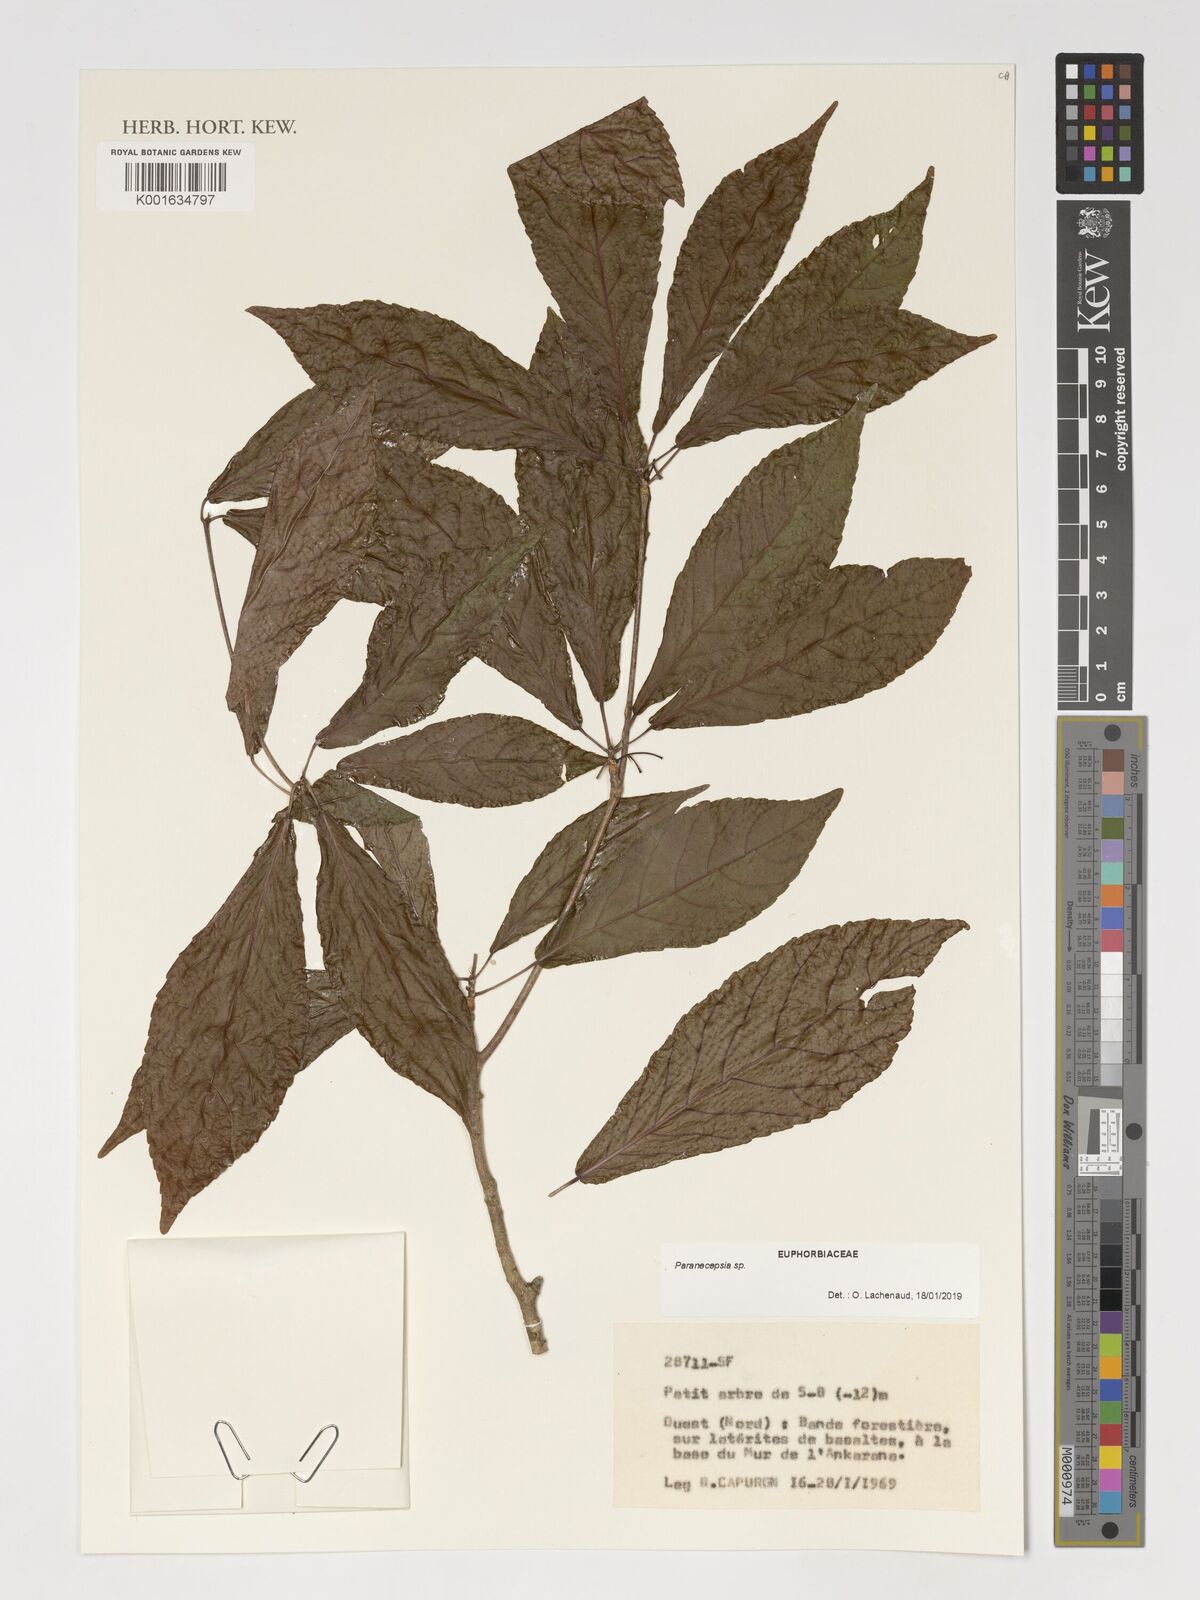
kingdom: Plantae
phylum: Tracheophyta
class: Magnoliopsida
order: Malpighiales
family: Euphorbiaceae
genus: Paranecepsia
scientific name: Paranecepsia
